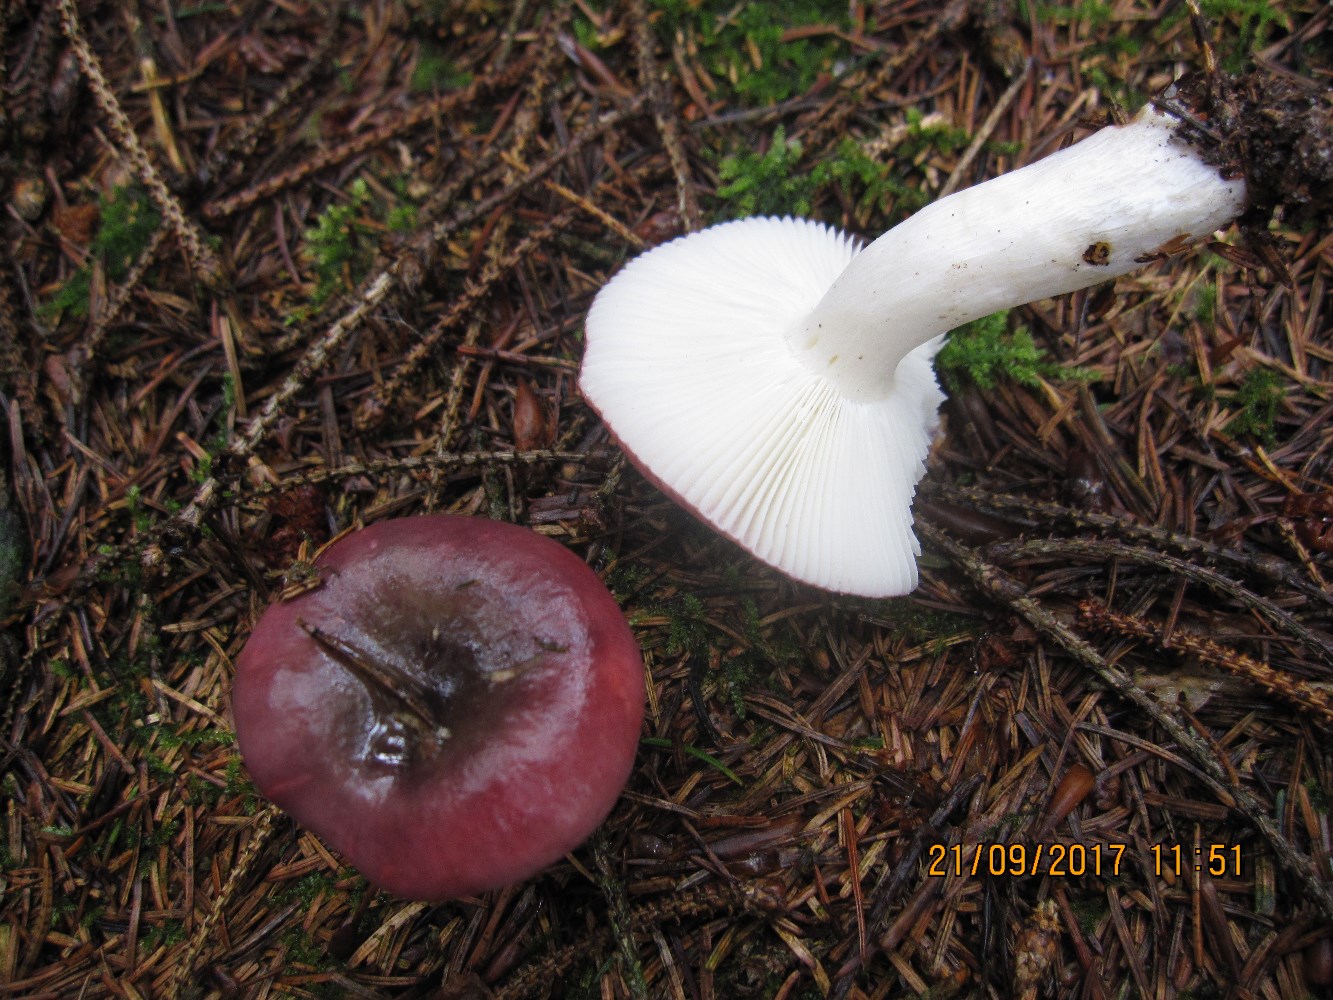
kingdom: Fungi
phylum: Basidiomycota
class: Agaricomycetes
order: Russulales
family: Russulaceae
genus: Russula
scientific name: Russula atrorubens
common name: sortrød skørhat
